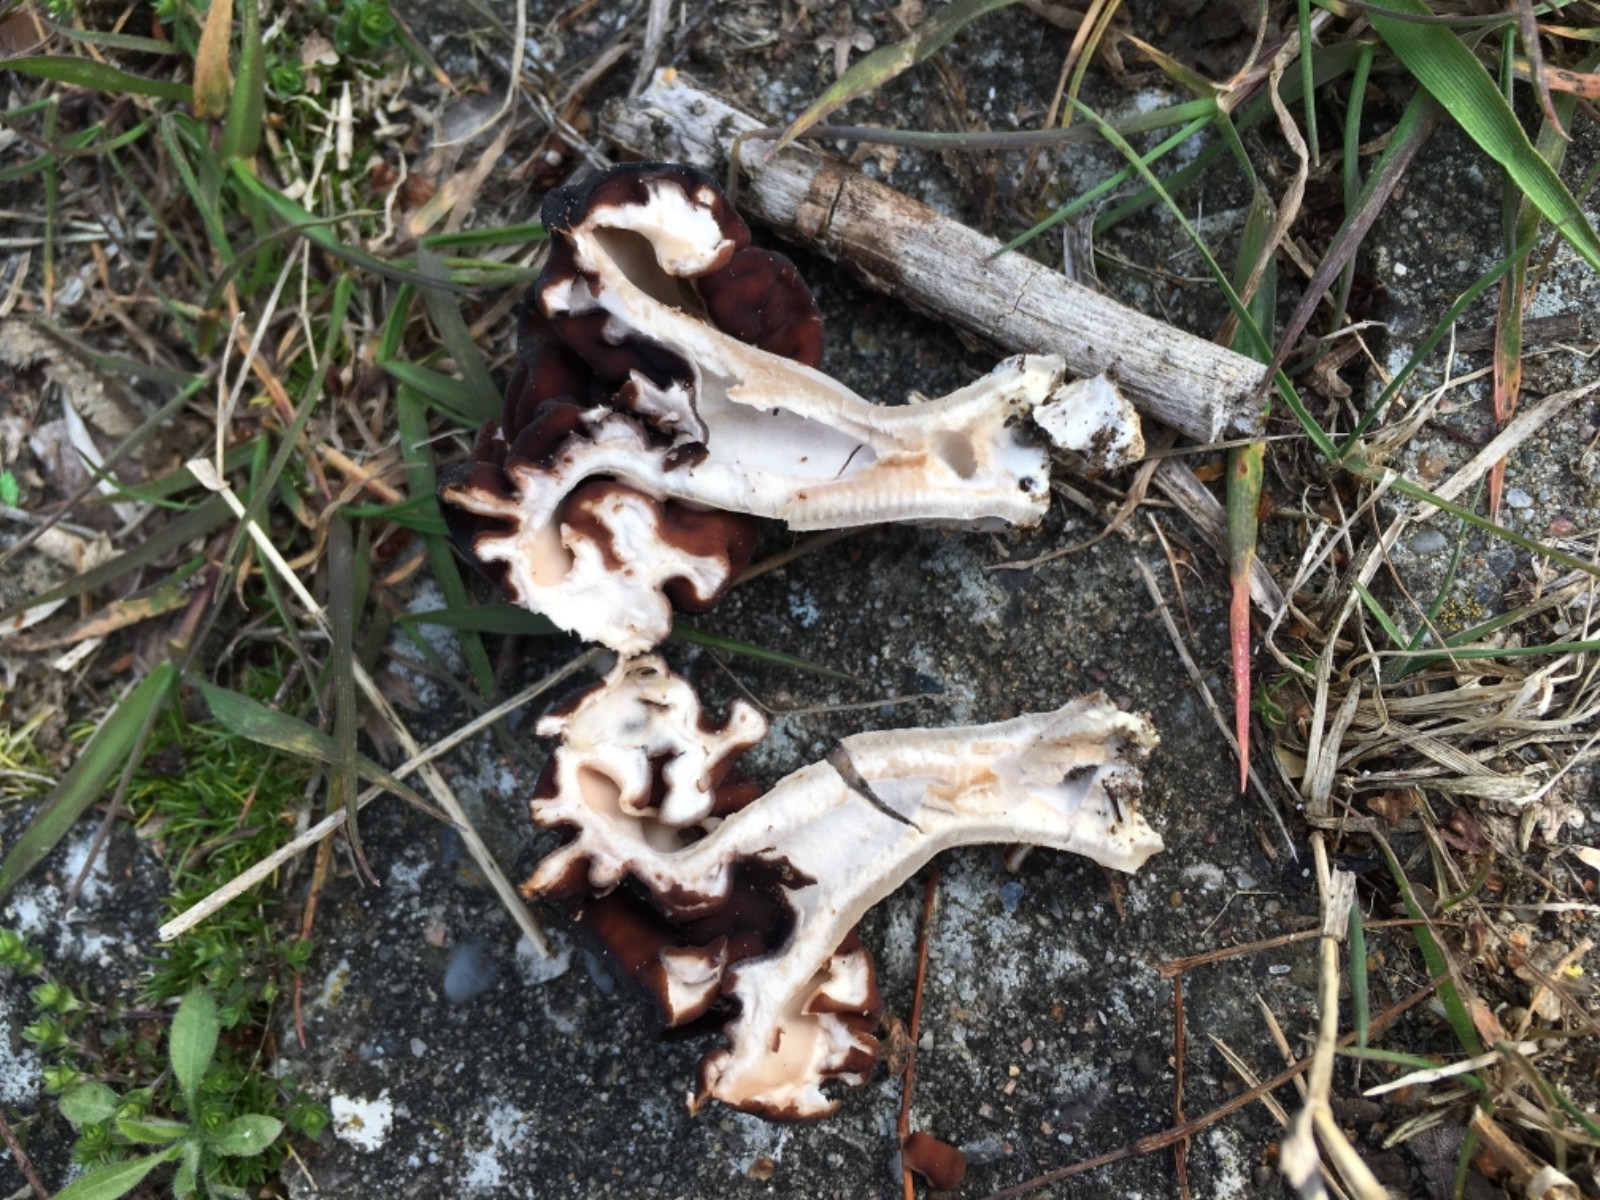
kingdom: Fungi
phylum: Ascomycota
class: Pezizomycetes
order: Pezizales
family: Discinaceae
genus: Gyromitra
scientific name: Gyromitra esculenta
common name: ægte stenmorkel
